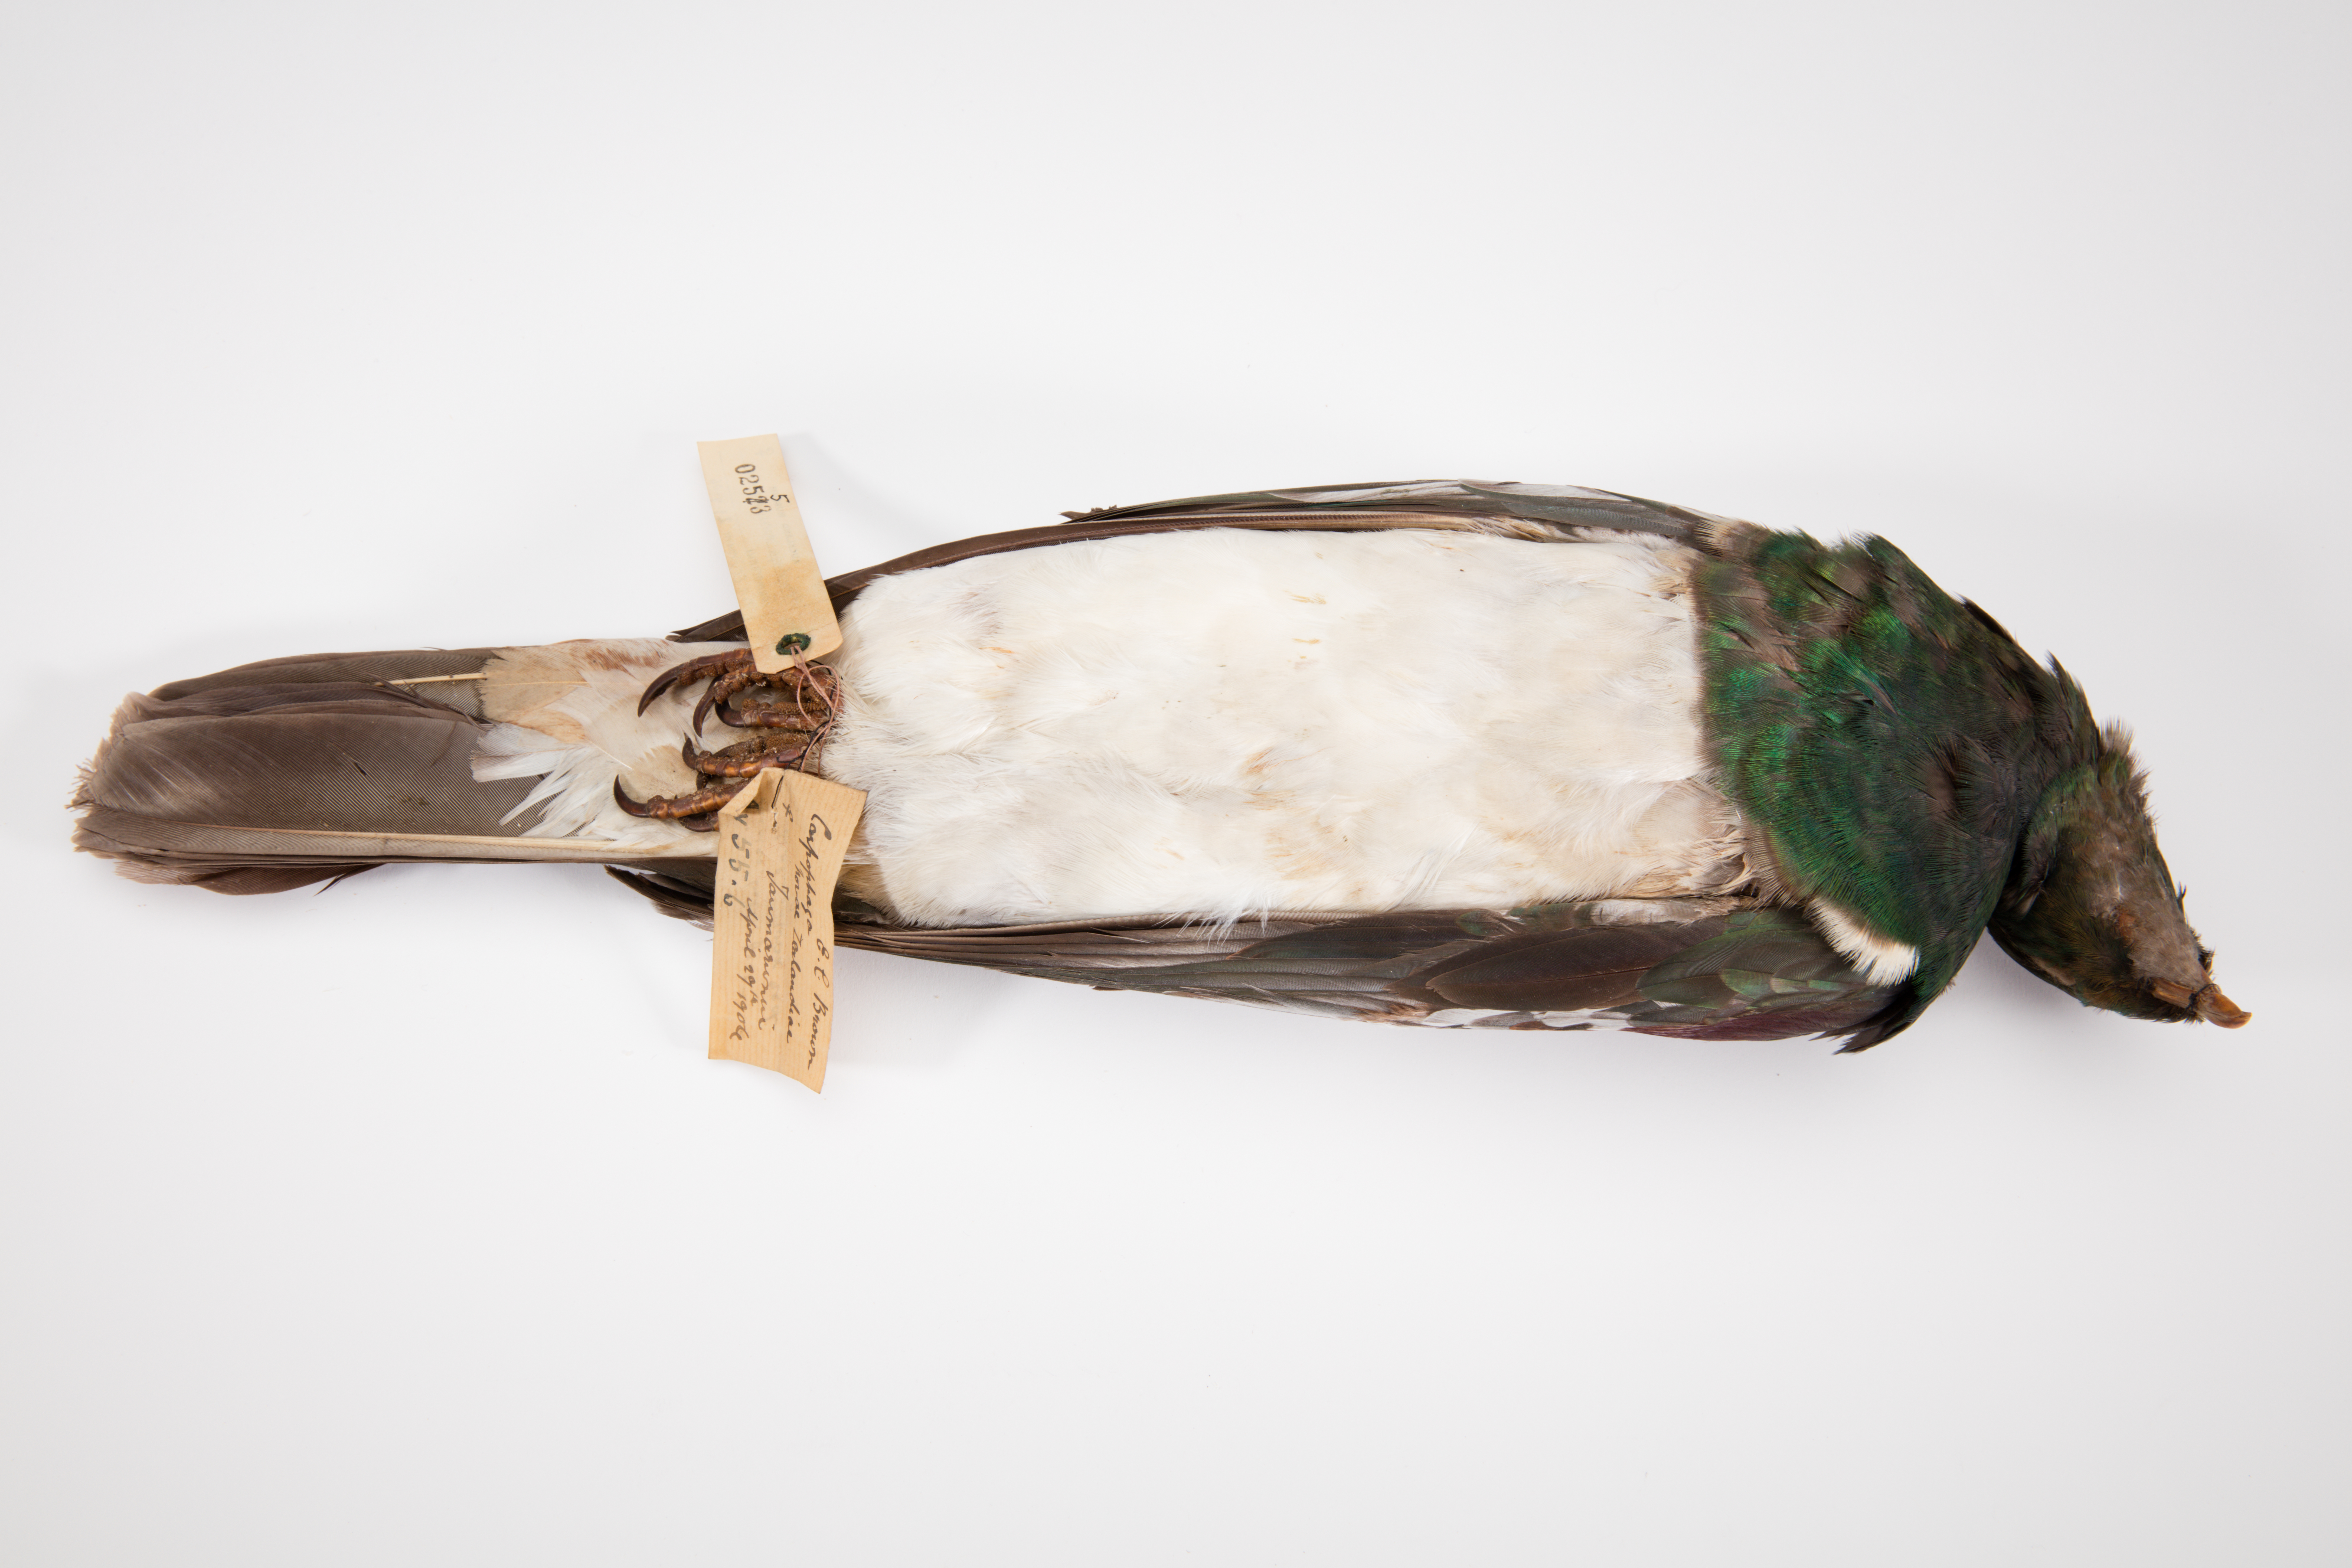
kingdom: Animalia
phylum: Chordata
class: Aves
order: Columbiformes
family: Columbidae
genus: Hemiphaga
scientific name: Hemiphaga novaeseelandiae
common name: New zealand pigeon
